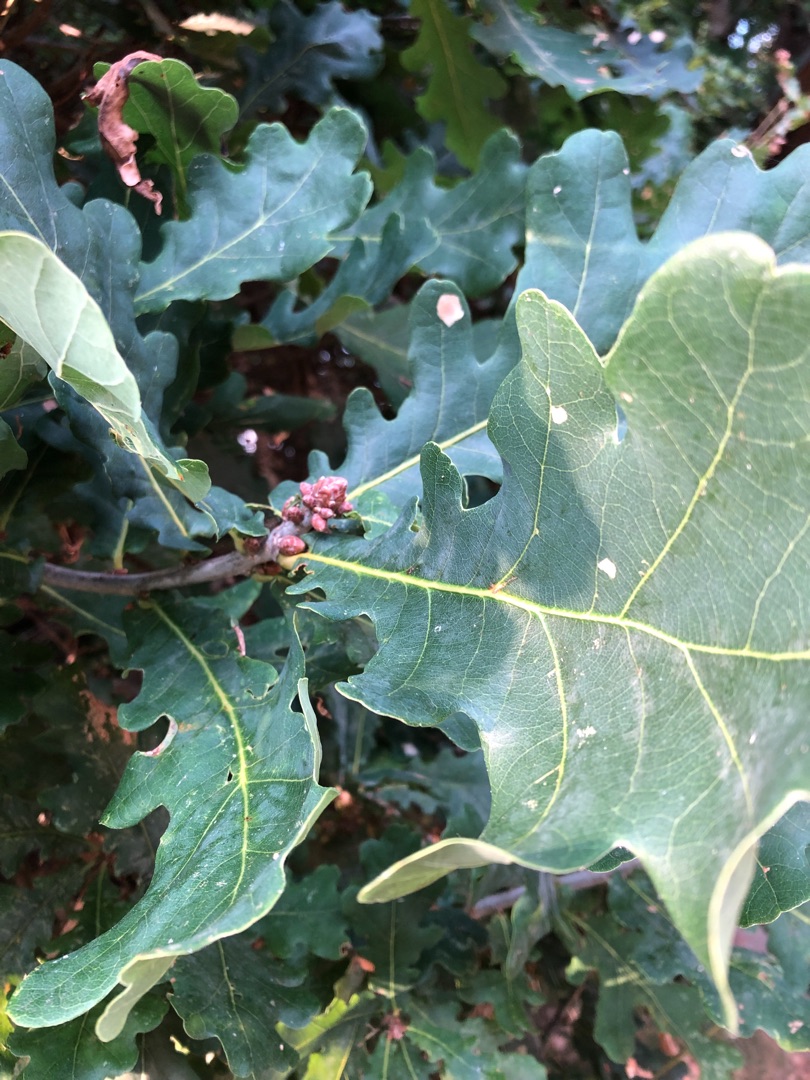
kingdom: Plantae
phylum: Tracheophyta
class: Magnoliopsida
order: Fagales
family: Fagaceae
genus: Quercus
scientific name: Quercus robur
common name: Stilk-eg/almindelig eg
